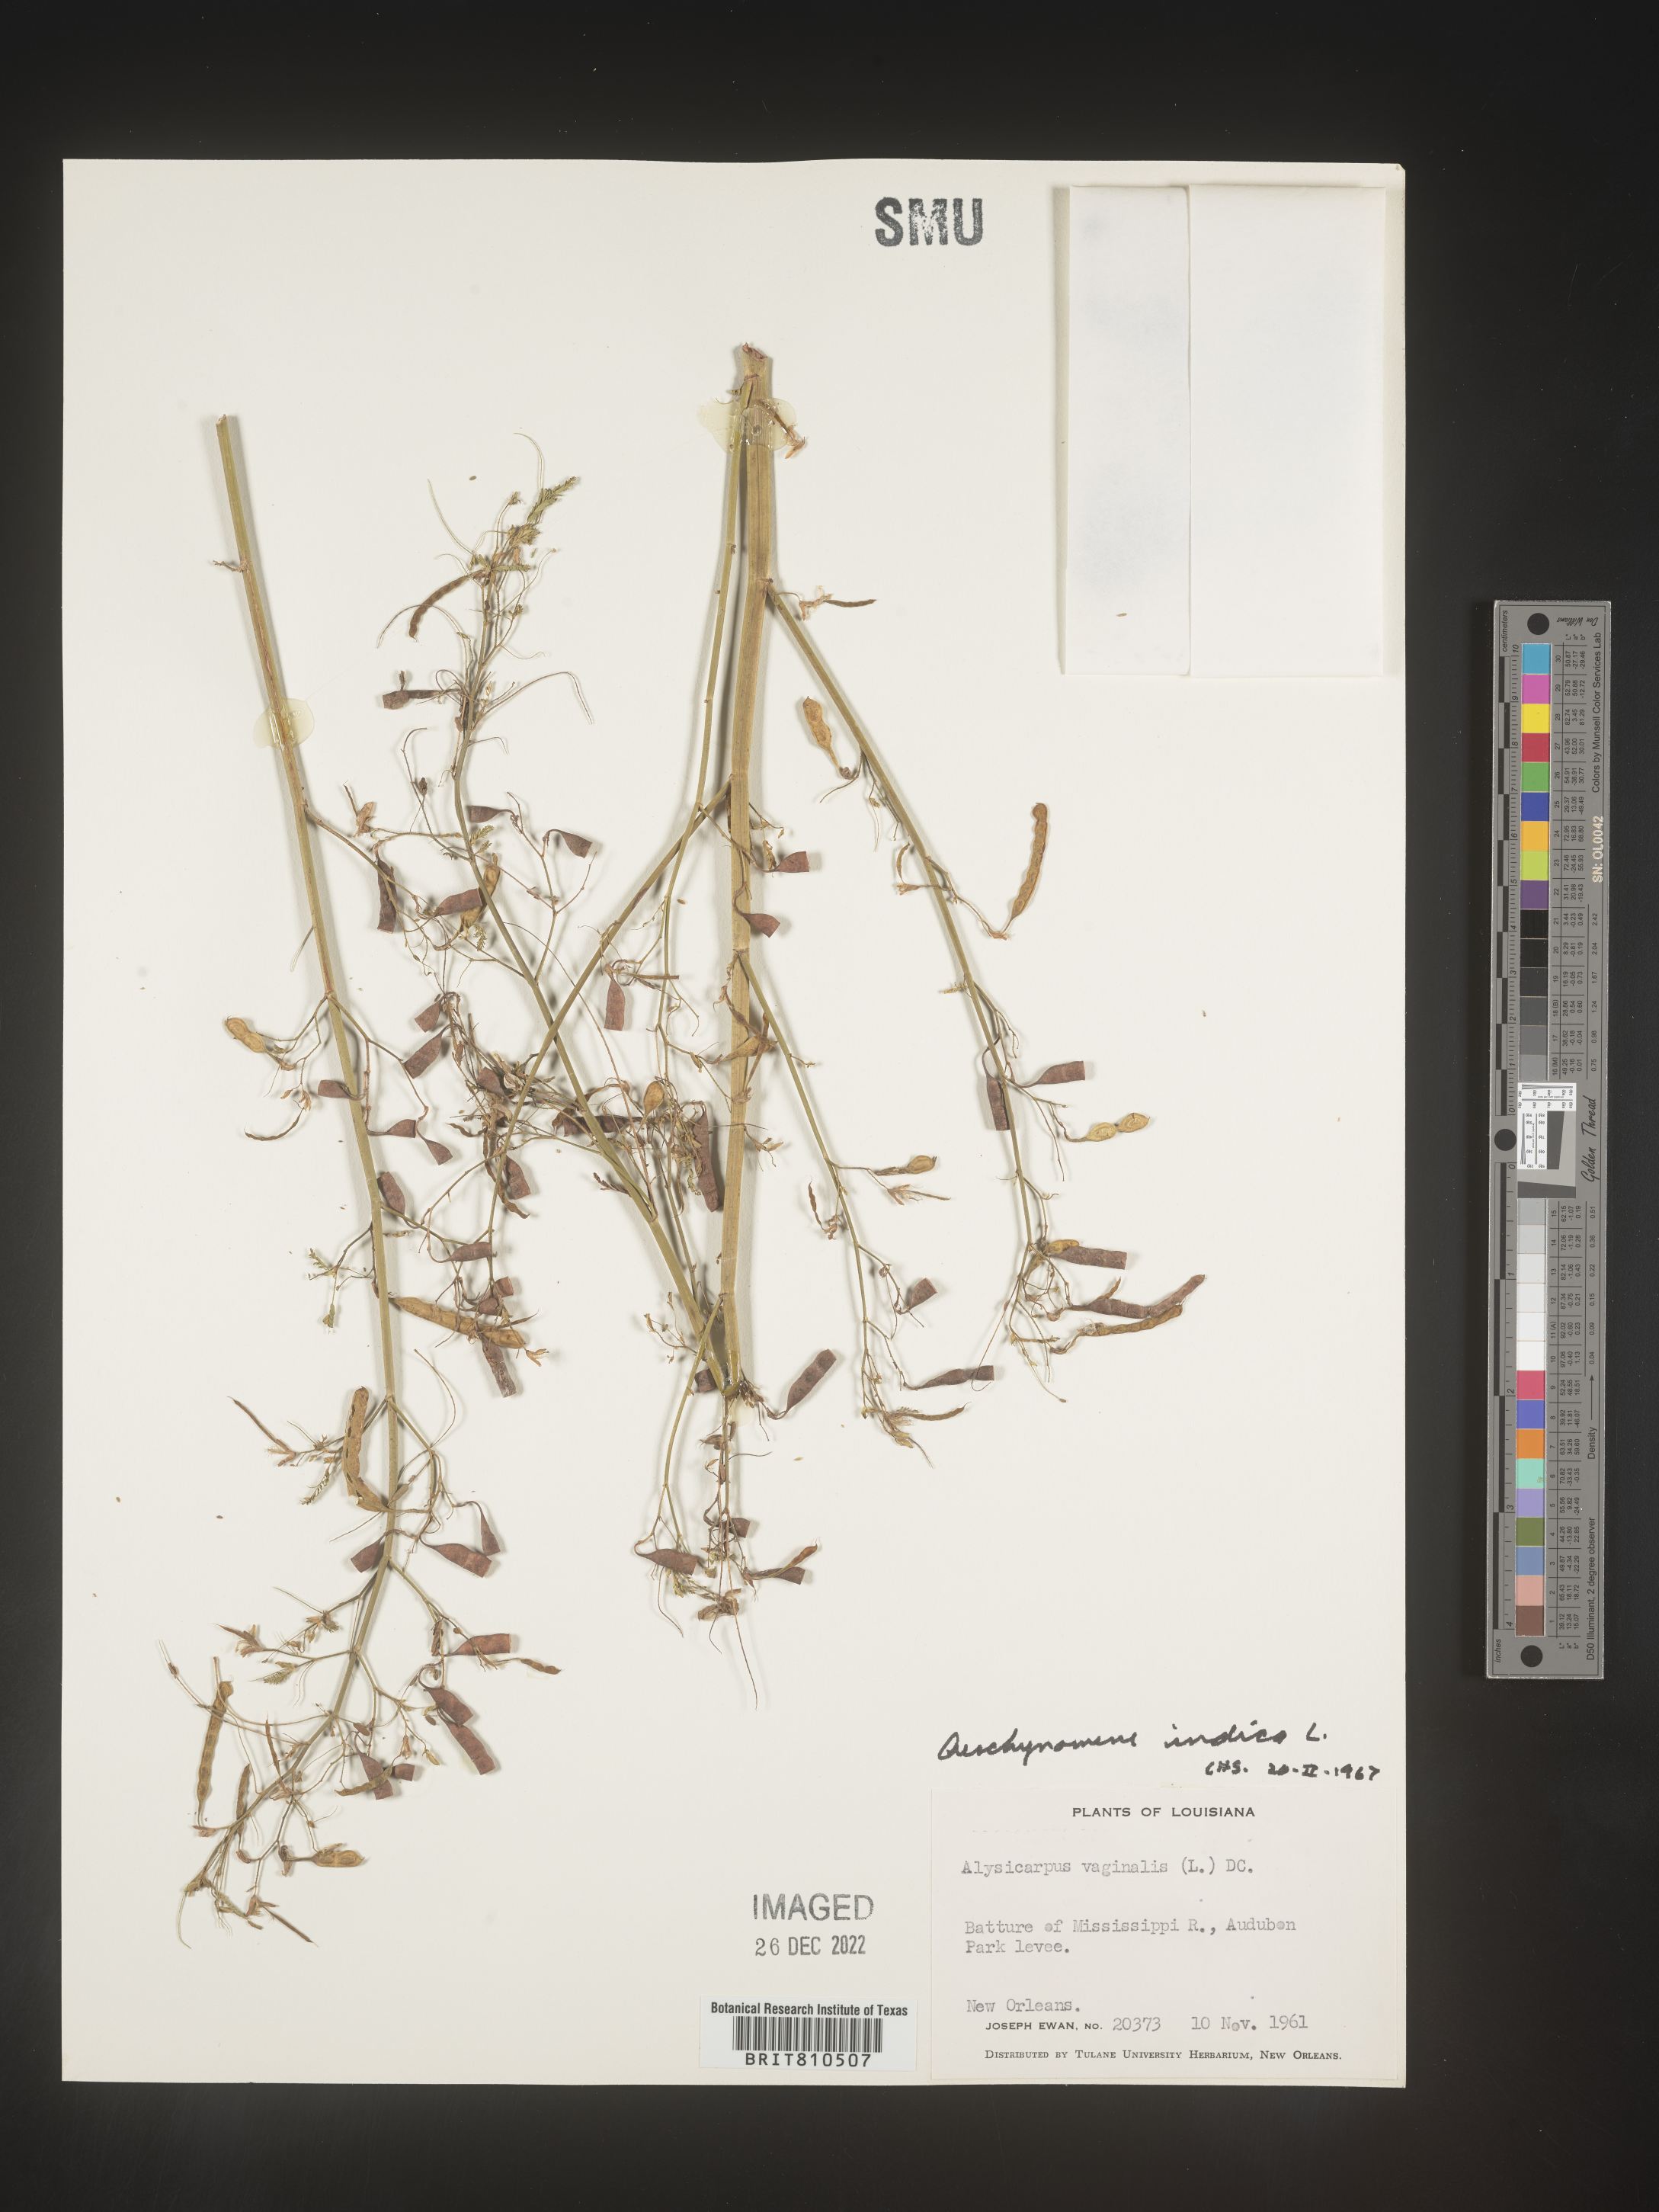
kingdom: Plantae
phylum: Tracheophyta
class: Magnoliopsida
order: Fabales
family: Fabaceae
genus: Aeschynomene
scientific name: Aeschynomene indica
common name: Indian jointvetch
